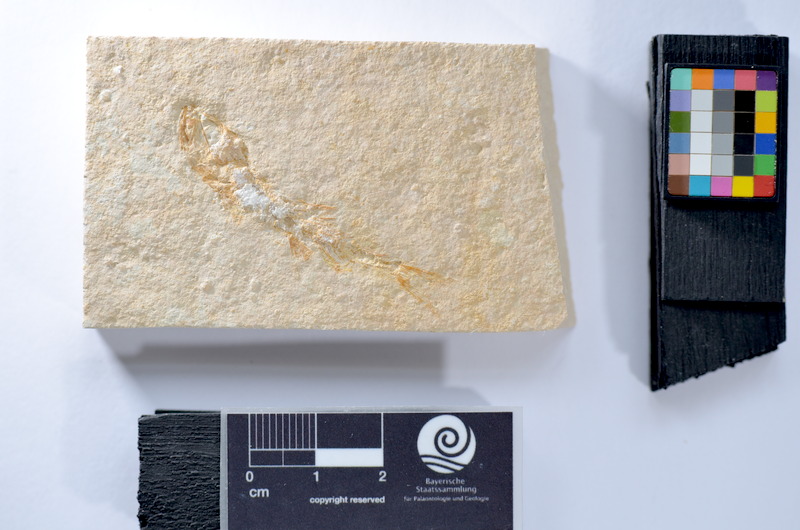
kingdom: Animalia
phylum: Chordata
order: Salmoniformes
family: Orthogonikleithridae
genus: Leptolepides
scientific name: Leptolepides
